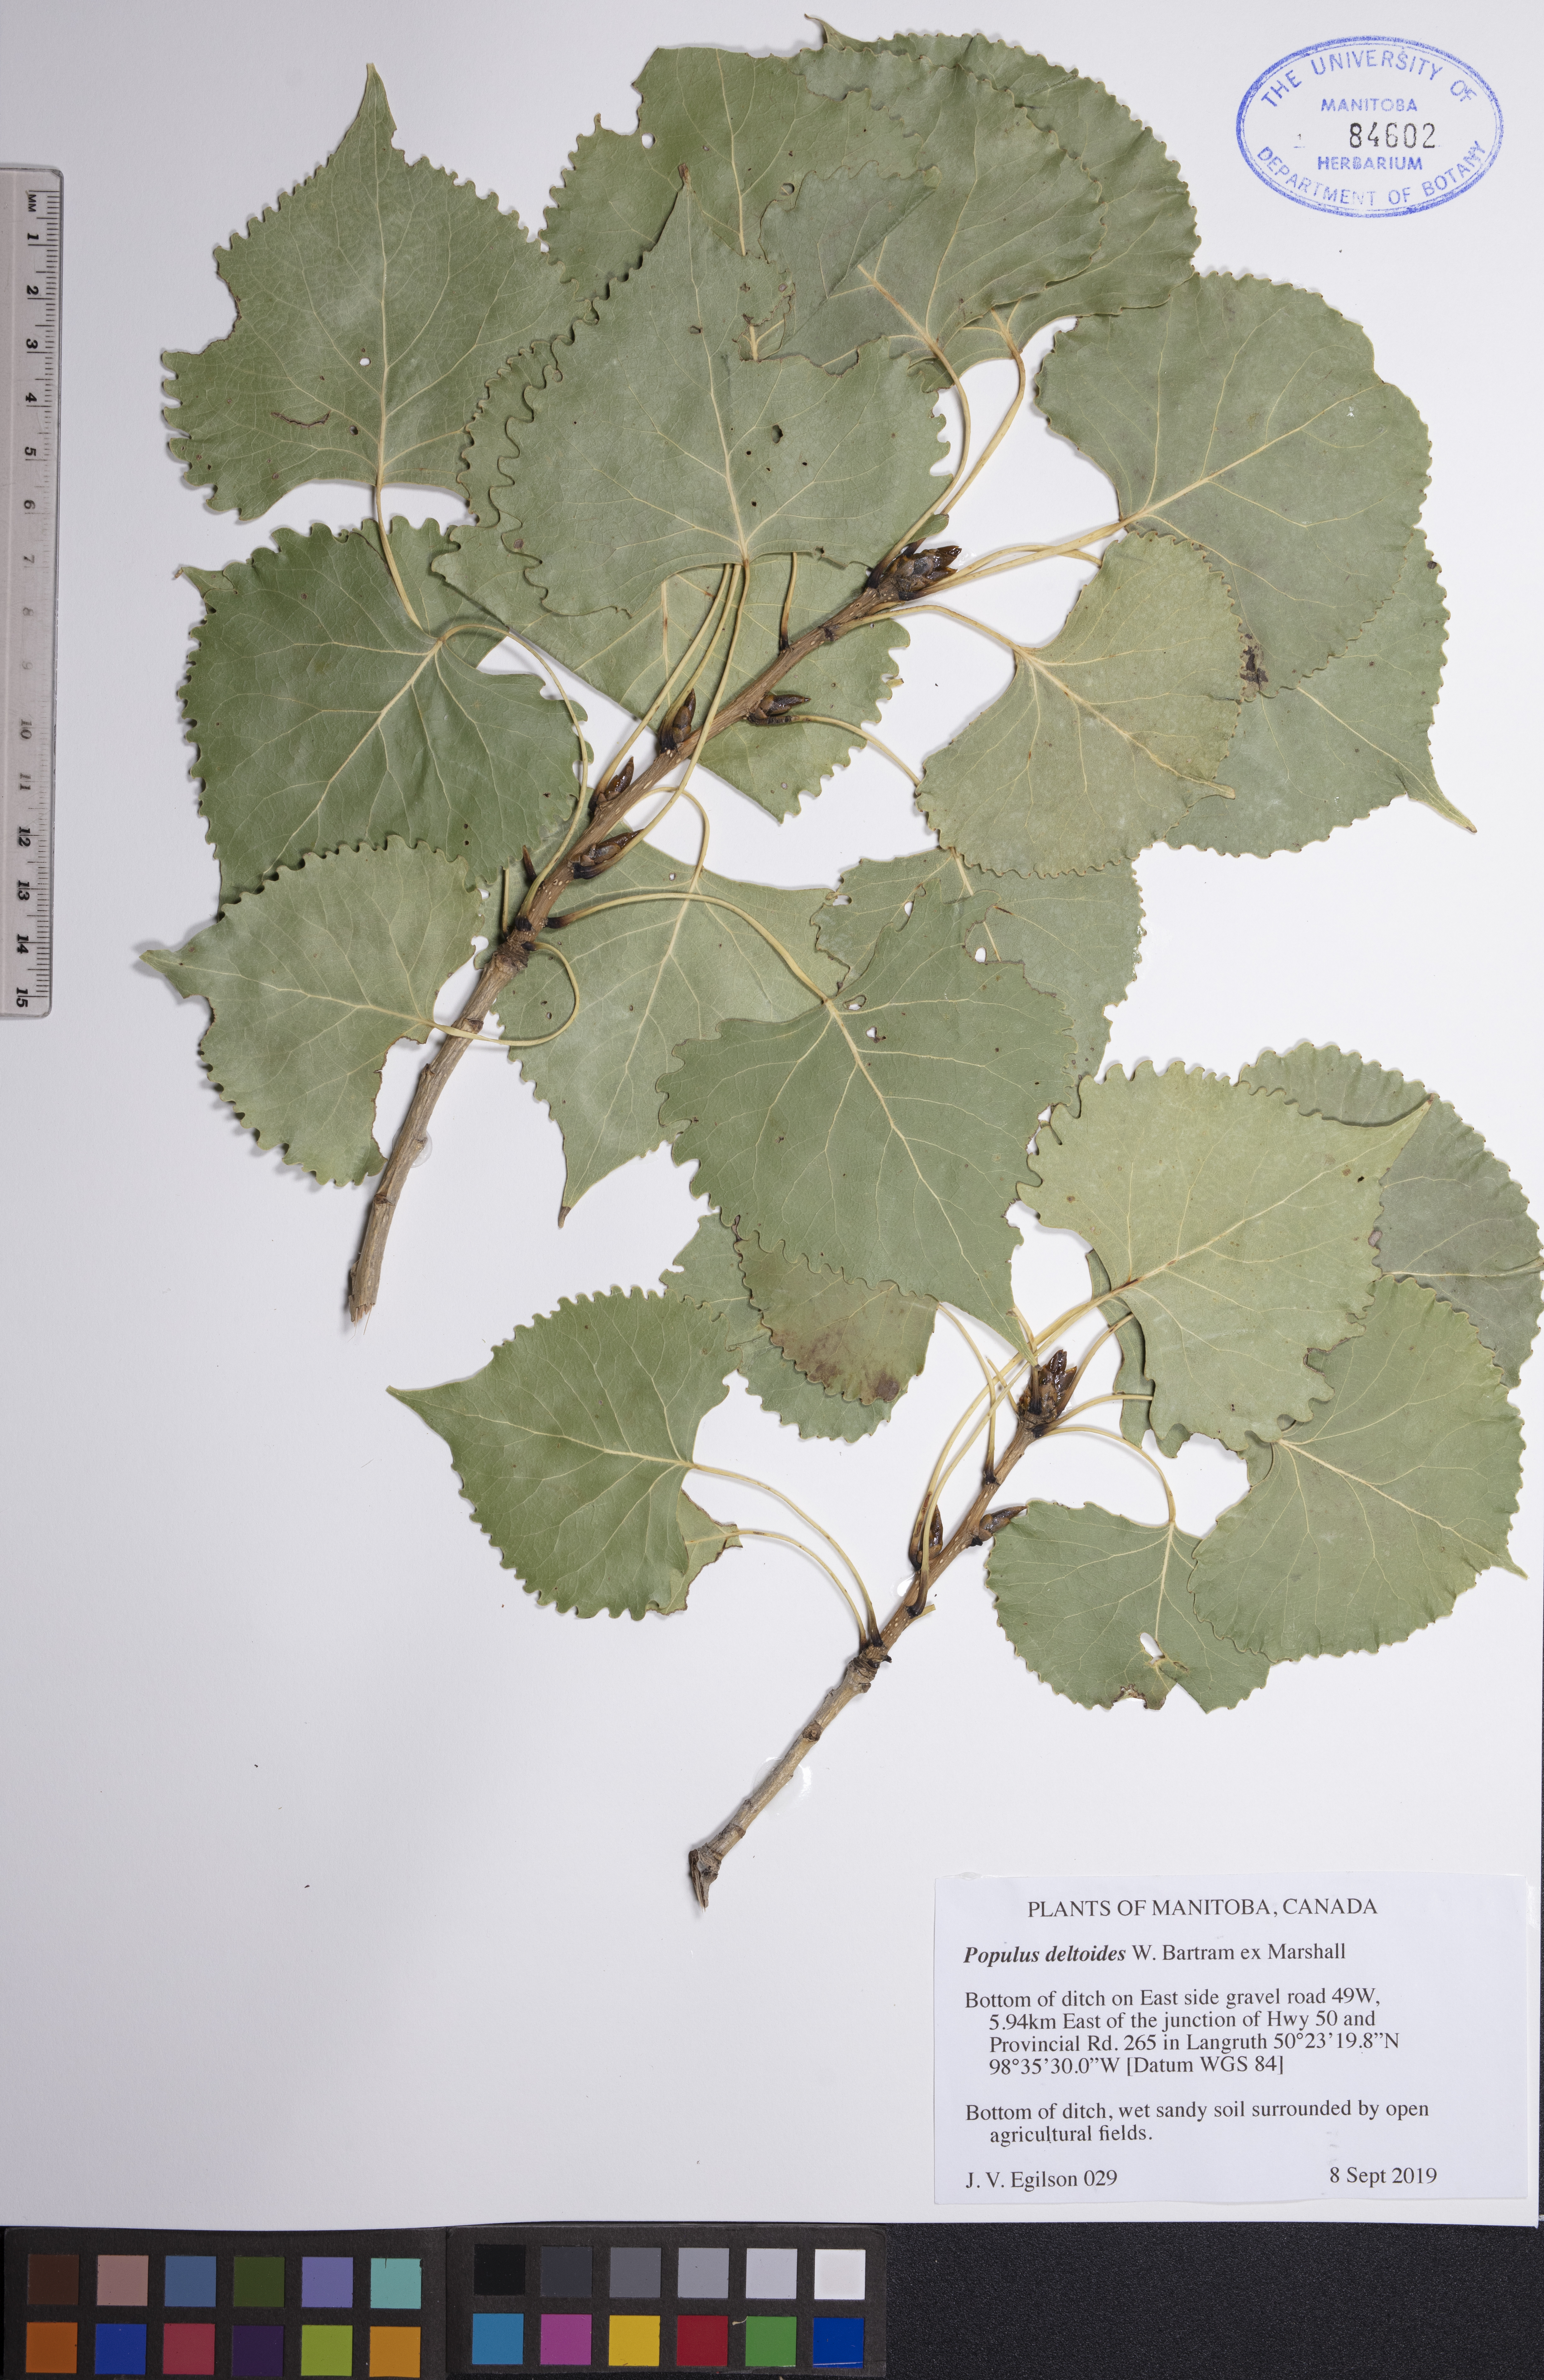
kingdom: Plantae
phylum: Tracheophyta
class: Magnoliopsida
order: Malpighiales
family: Salicaceae
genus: Populus
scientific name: Populus deltoides
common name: Eastern cottonwood
